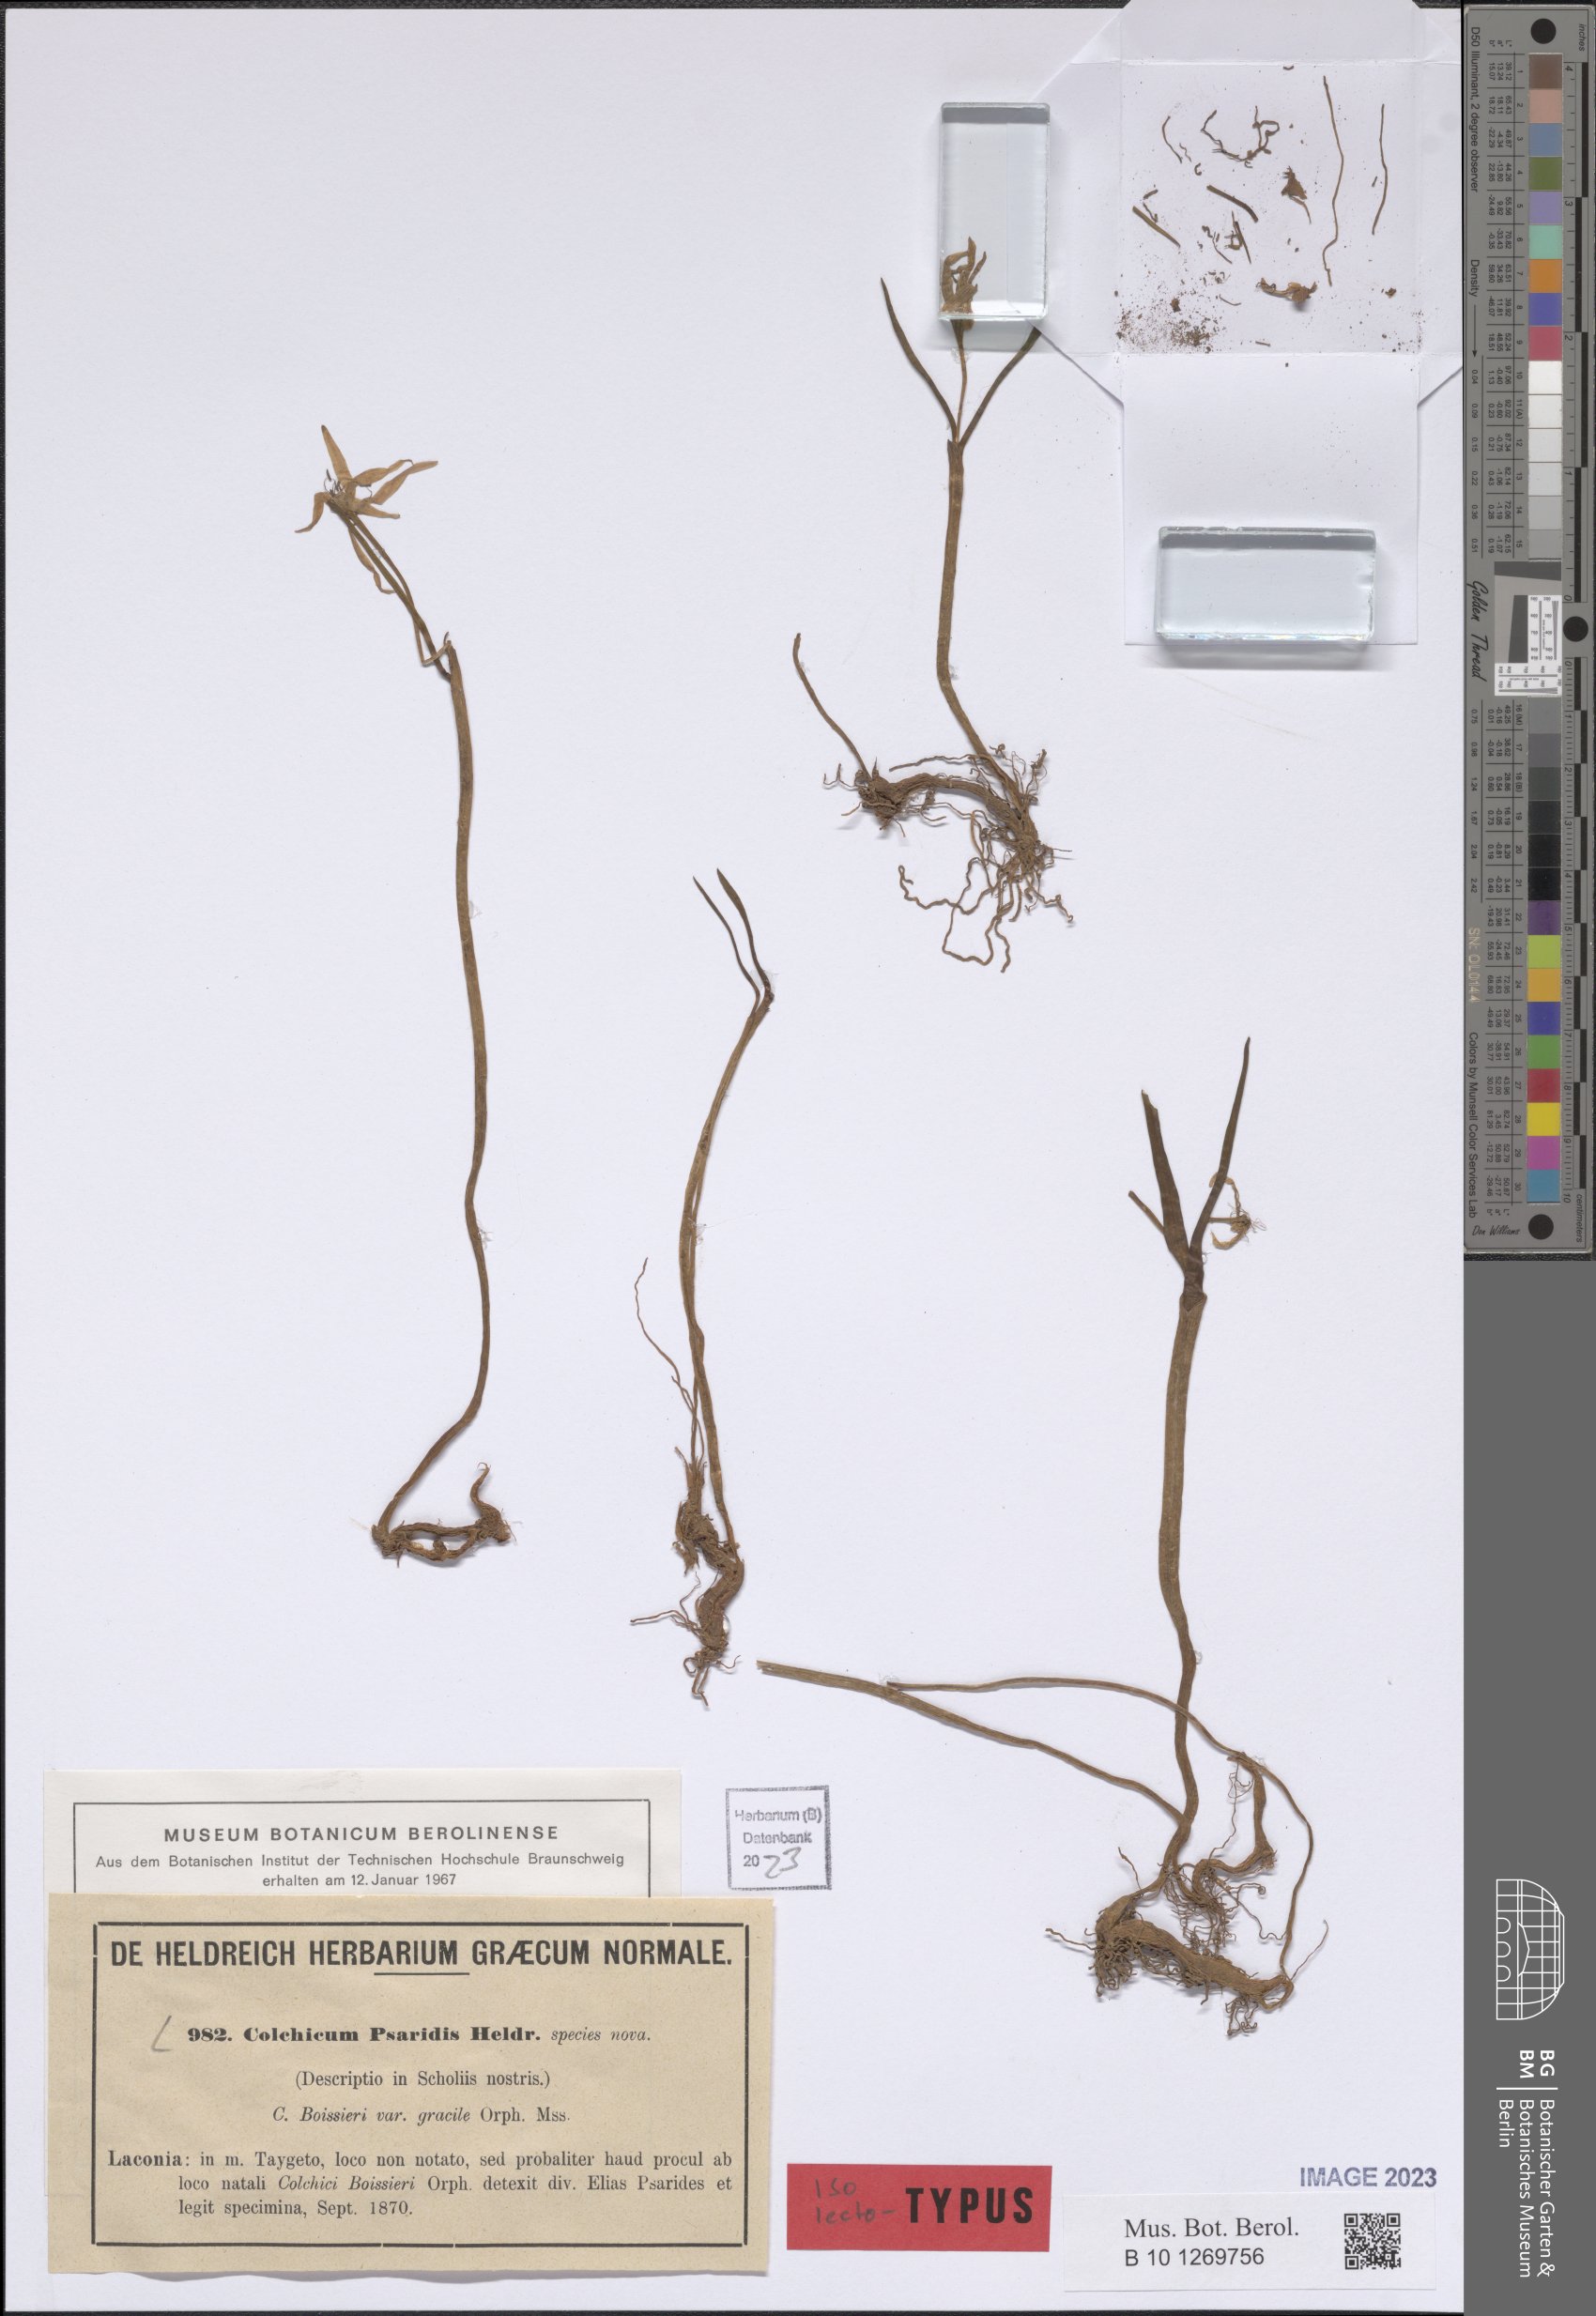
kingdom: Plantae
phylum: Tracheophyta
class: Liliopsida
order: Liliales
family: Colchicaceae
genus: Colchicum
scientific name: Colchicum zahnii
